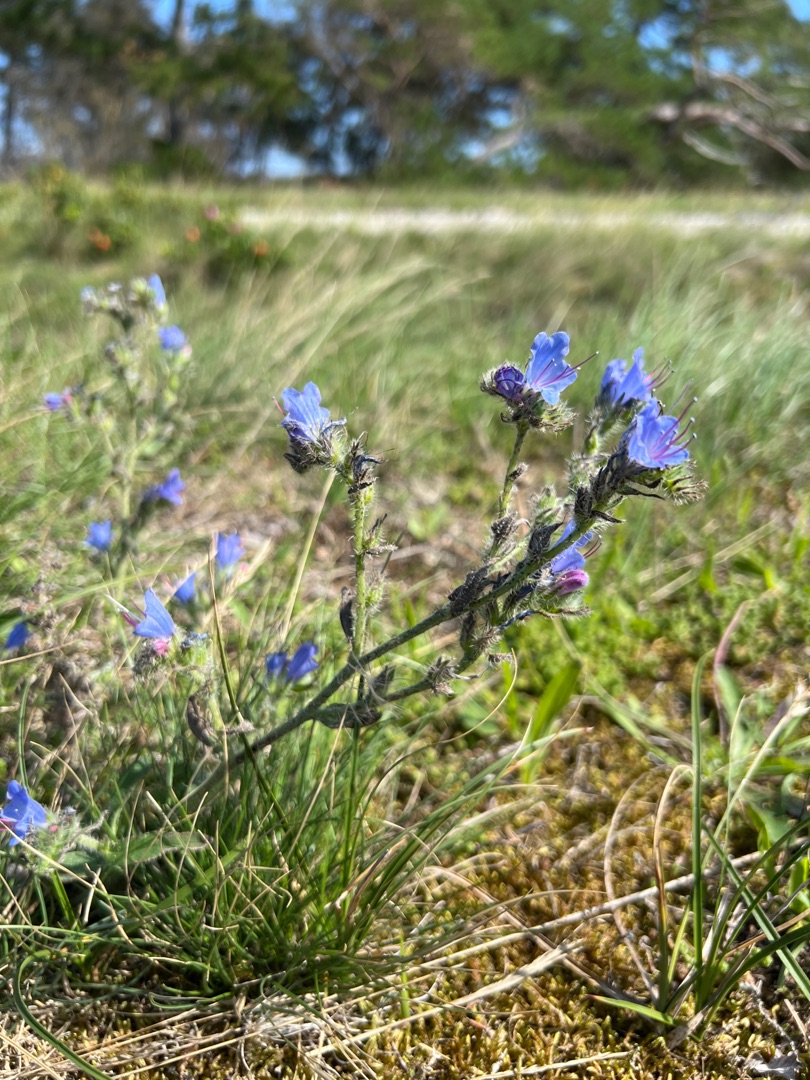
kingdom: Plantae
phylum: Tracheophyta
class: Magnoliopsida
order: Boraginales
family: Boraginaceae
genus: Echium
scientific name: Echium vulgare
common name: Slangehoved
